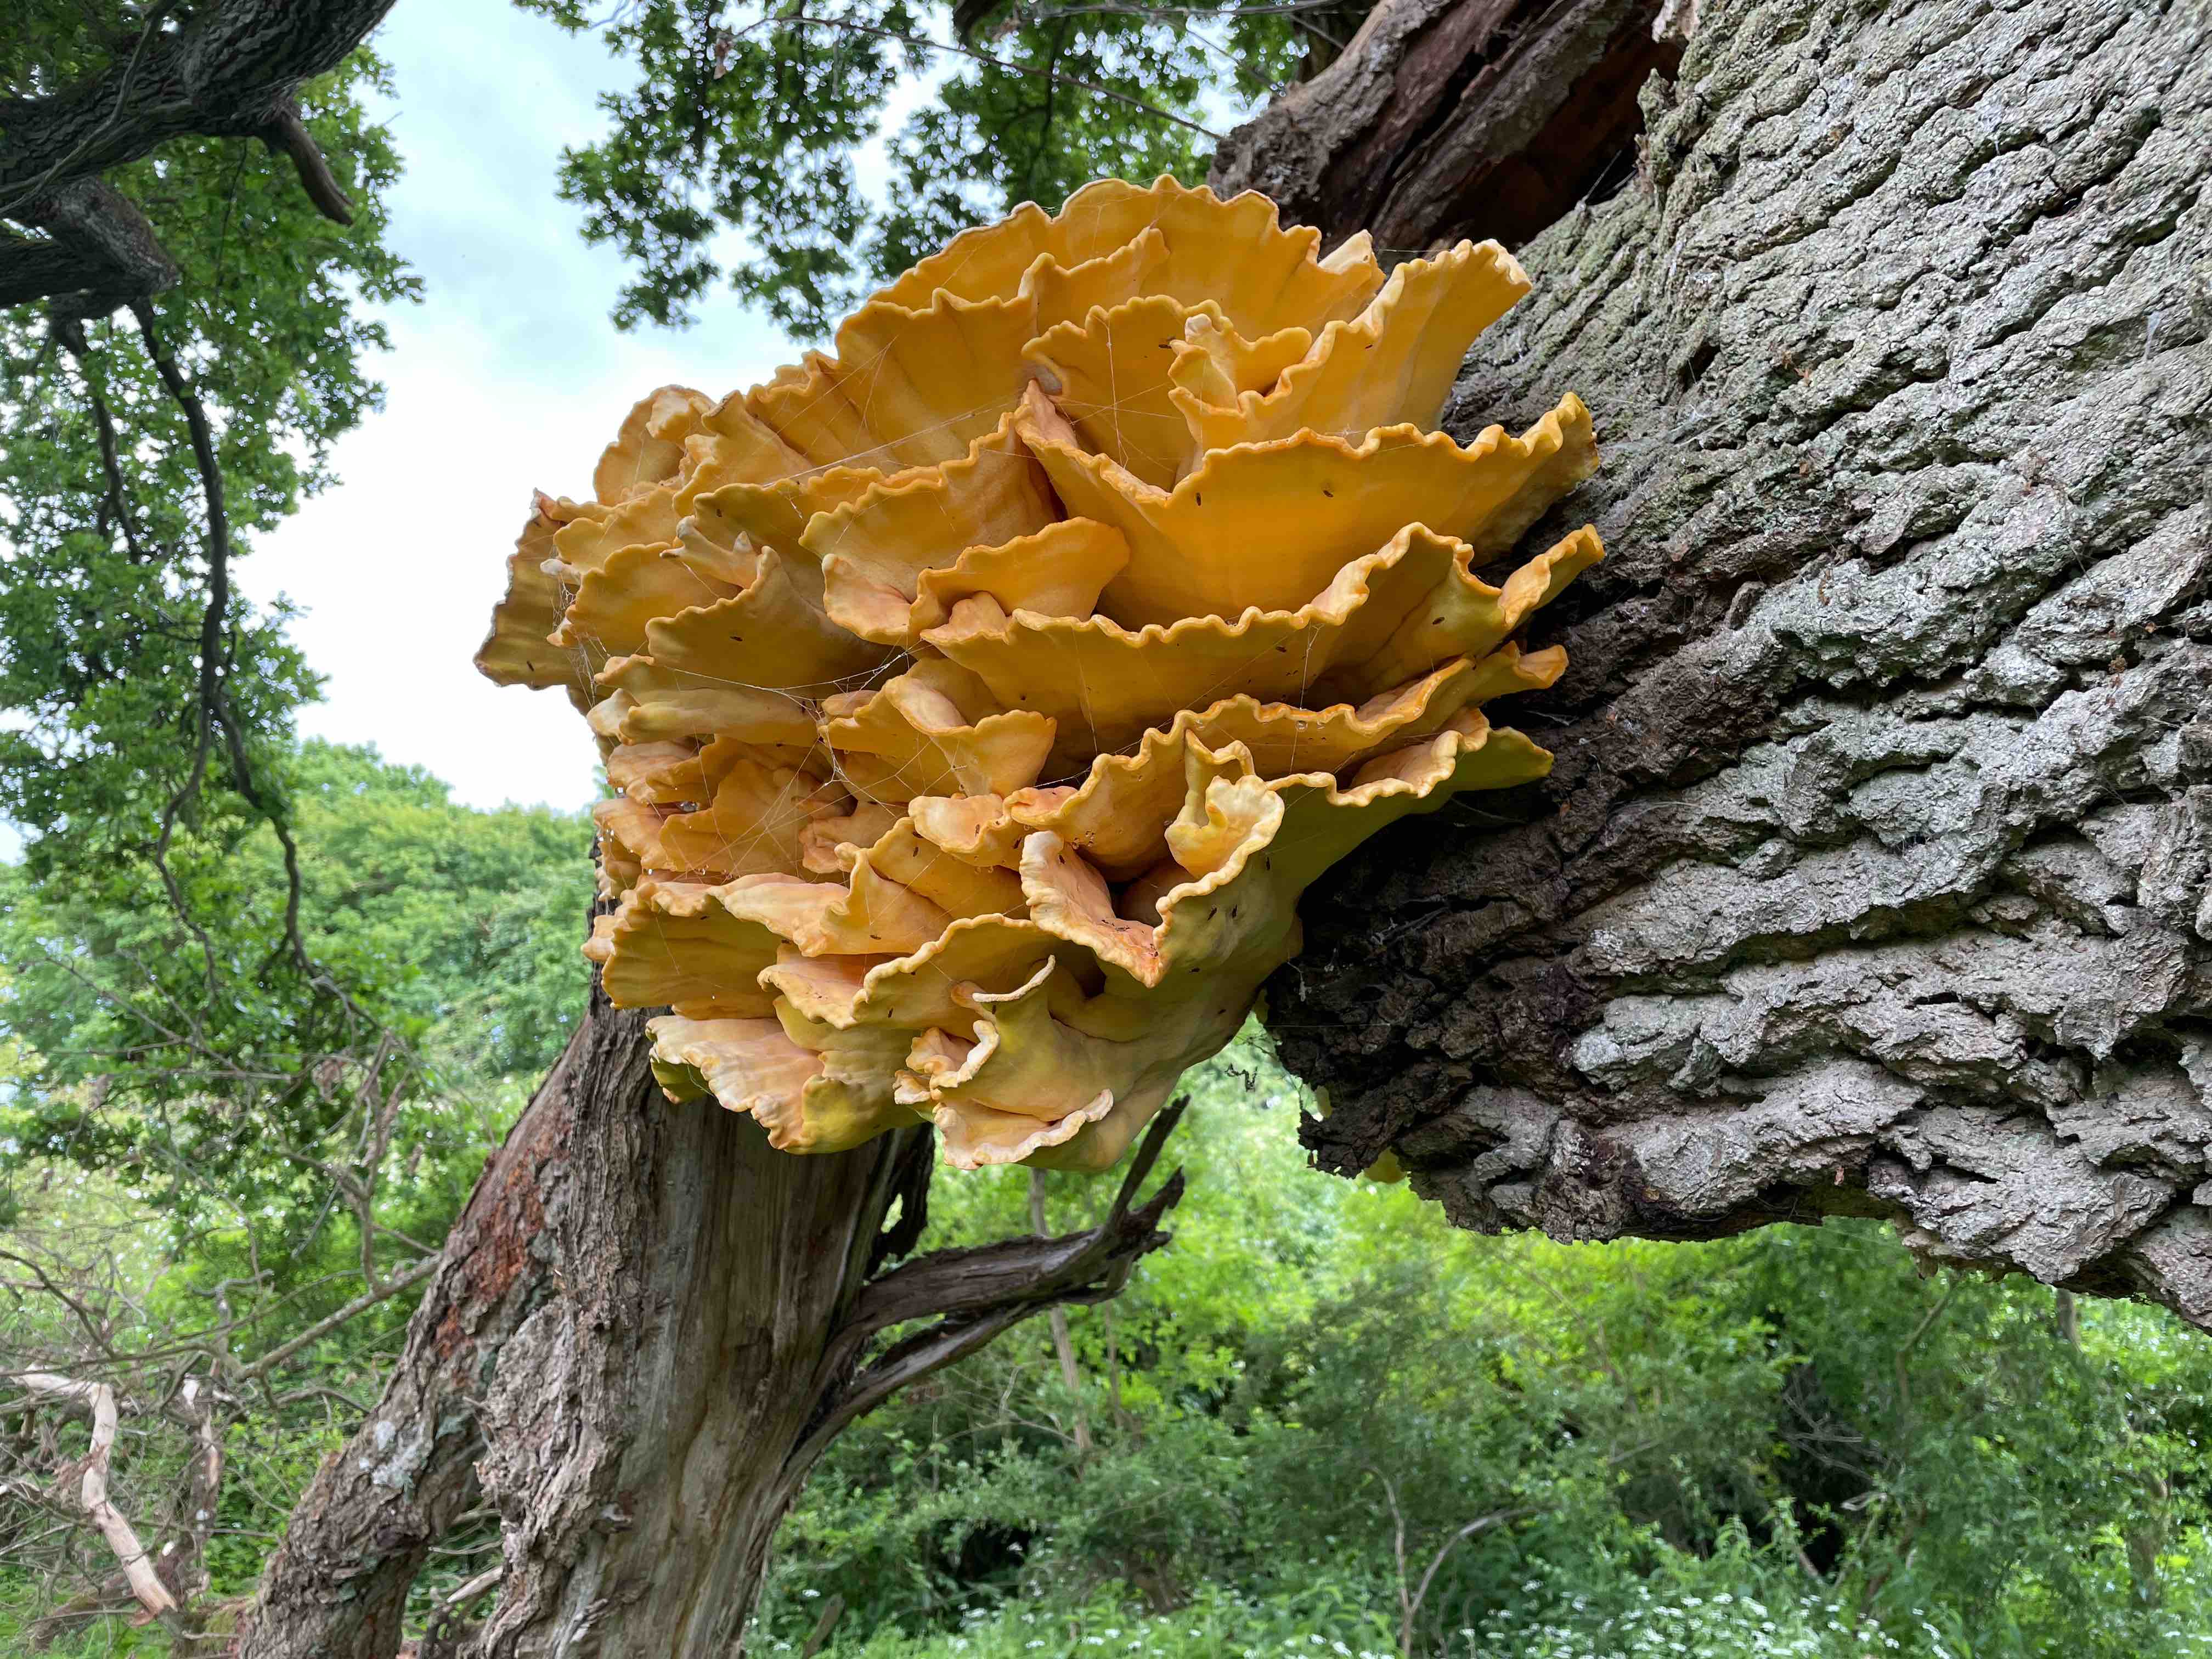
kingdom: Fungi
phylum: Basidiomycota
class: Agaricomycetes
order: Polyporales
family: Laetiporaceae
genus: Laetiporus
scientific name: Laetiporus sulphureus
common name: svovlporesvamp
